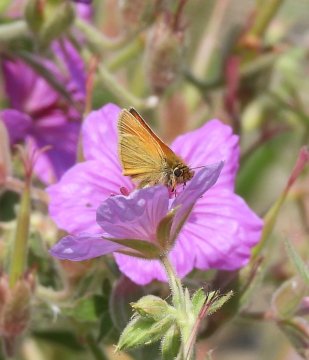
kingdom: Animalia
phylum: Arthropoda
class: Insecta
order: Lepidoptera
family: Hesperiidae
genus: Thymelicus
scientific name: Thymelicus lineola
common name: European Skipper
